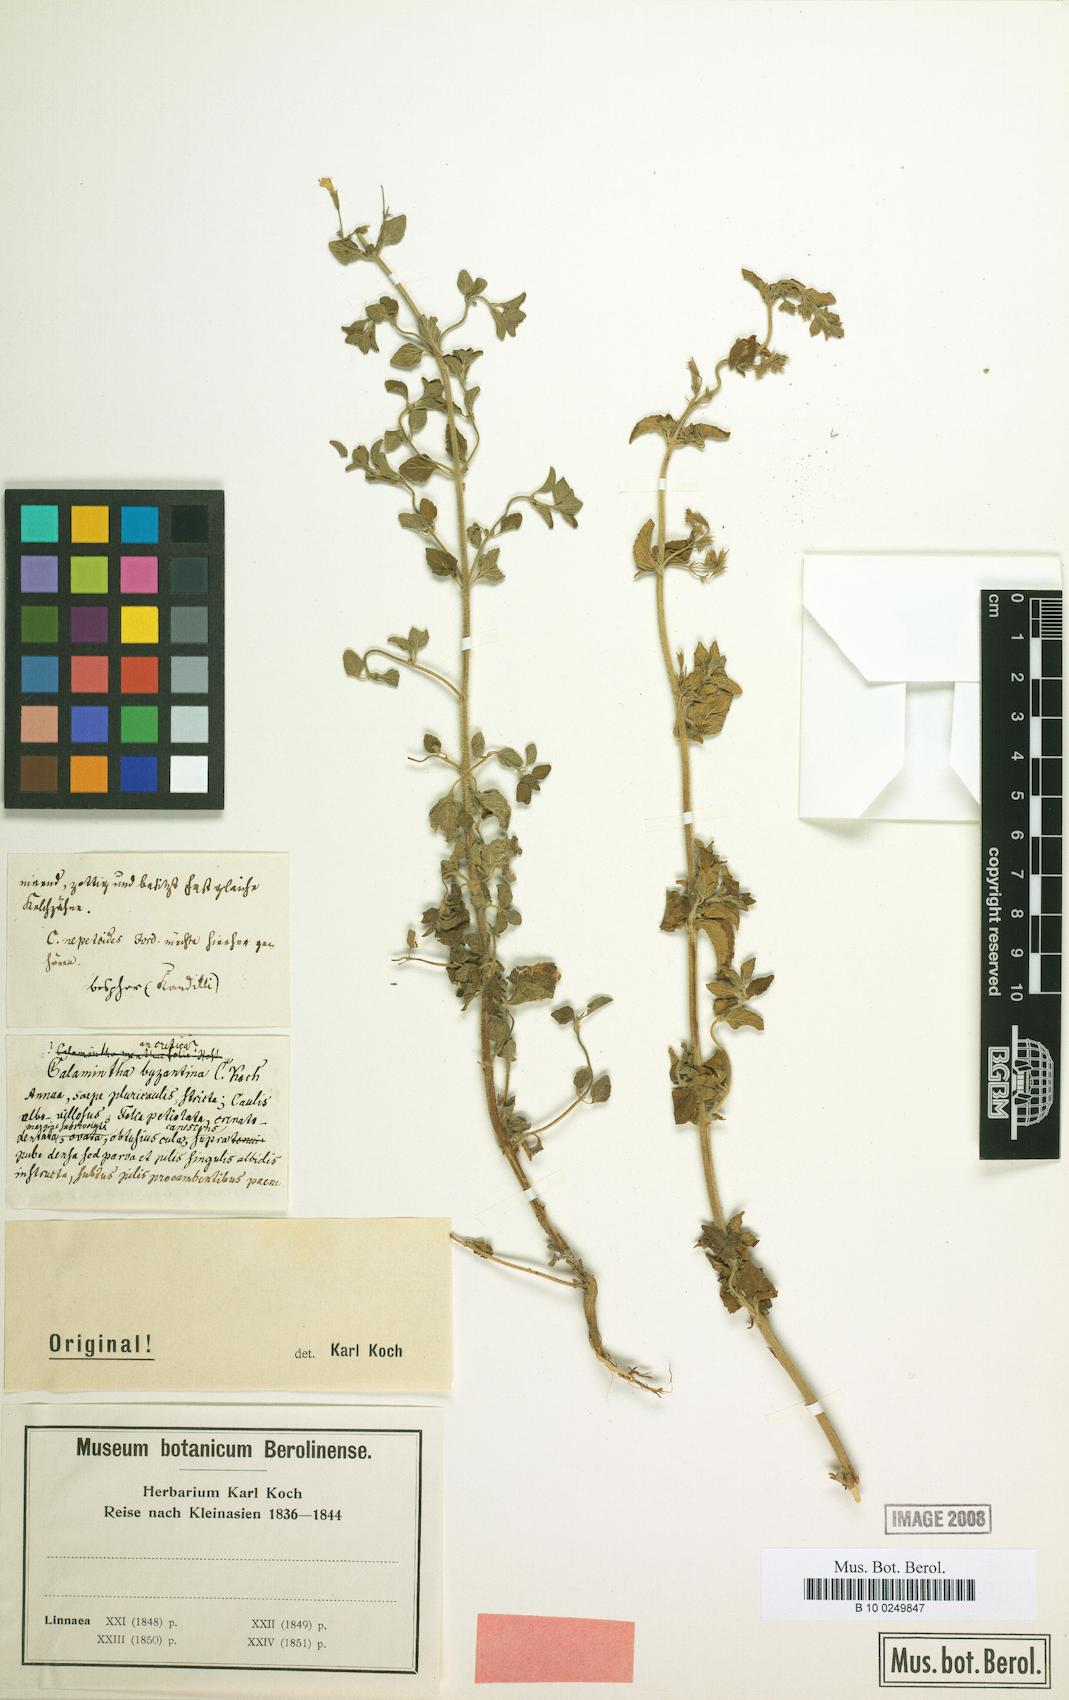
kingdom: Plantae
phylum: Tracheophyta
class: Magnoliopsida
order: Lamiales
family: Lamiaceae
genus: Clinopodium
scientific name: Clinopodium nepeta
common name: Lesser calamint
